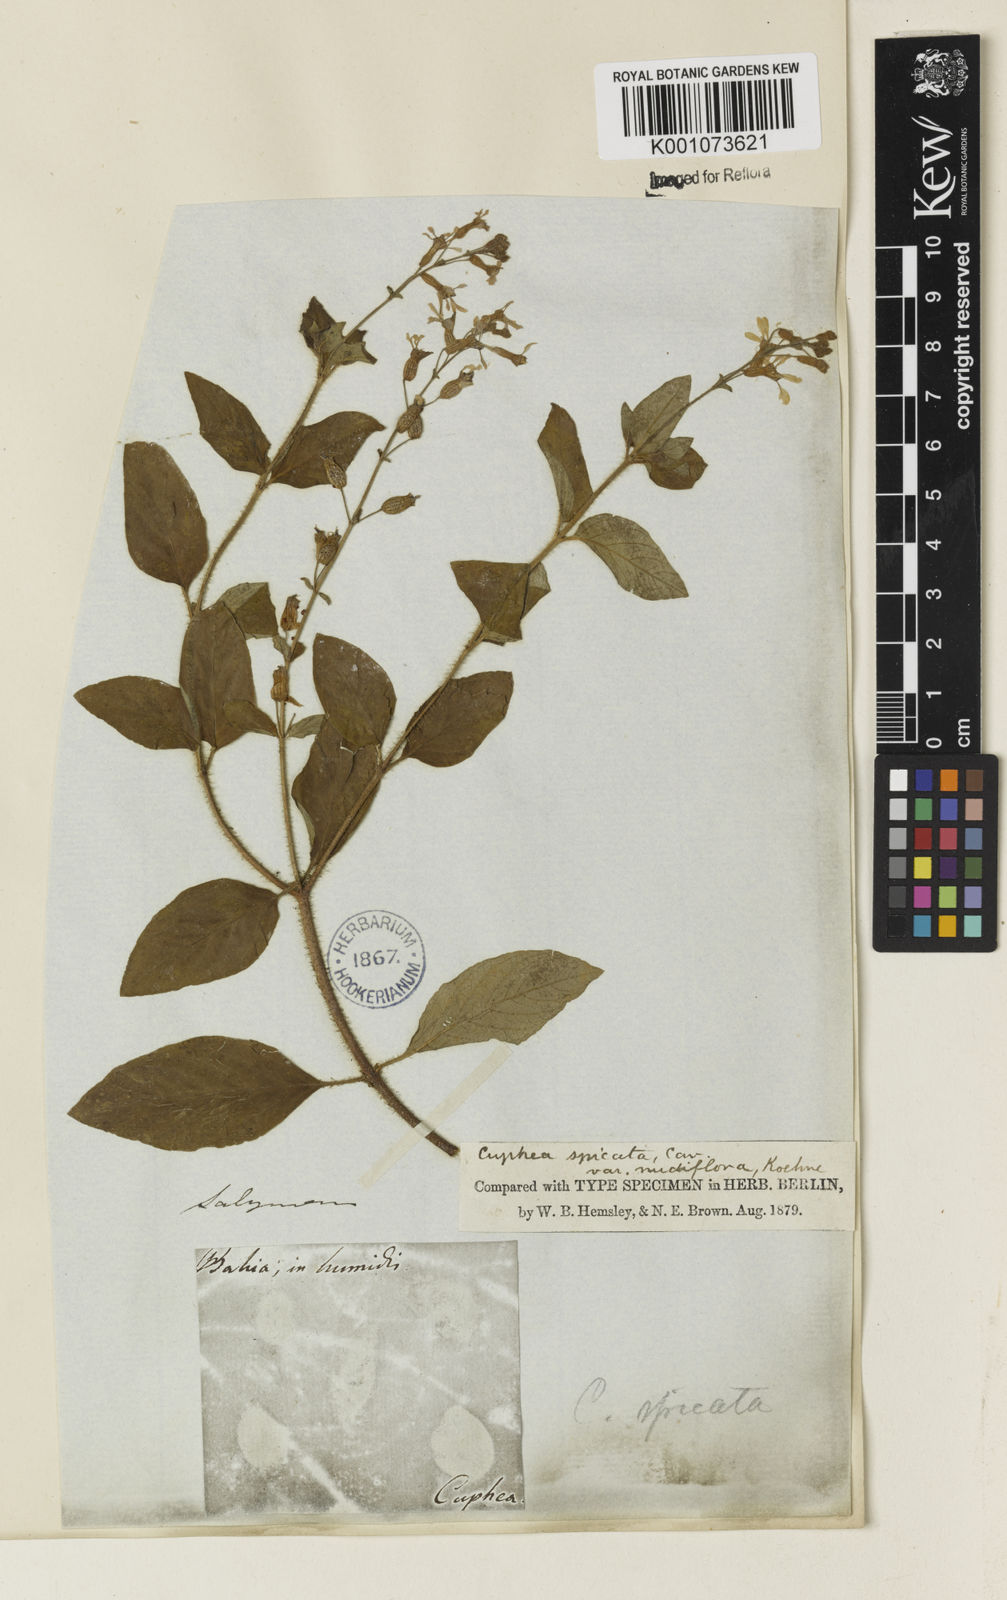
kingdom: Plantae
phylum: Tracheophyta
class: Magnoliopsida
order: Myrtales
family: Lythraceae
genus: Cuphea
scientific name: Cuphea racemosa
